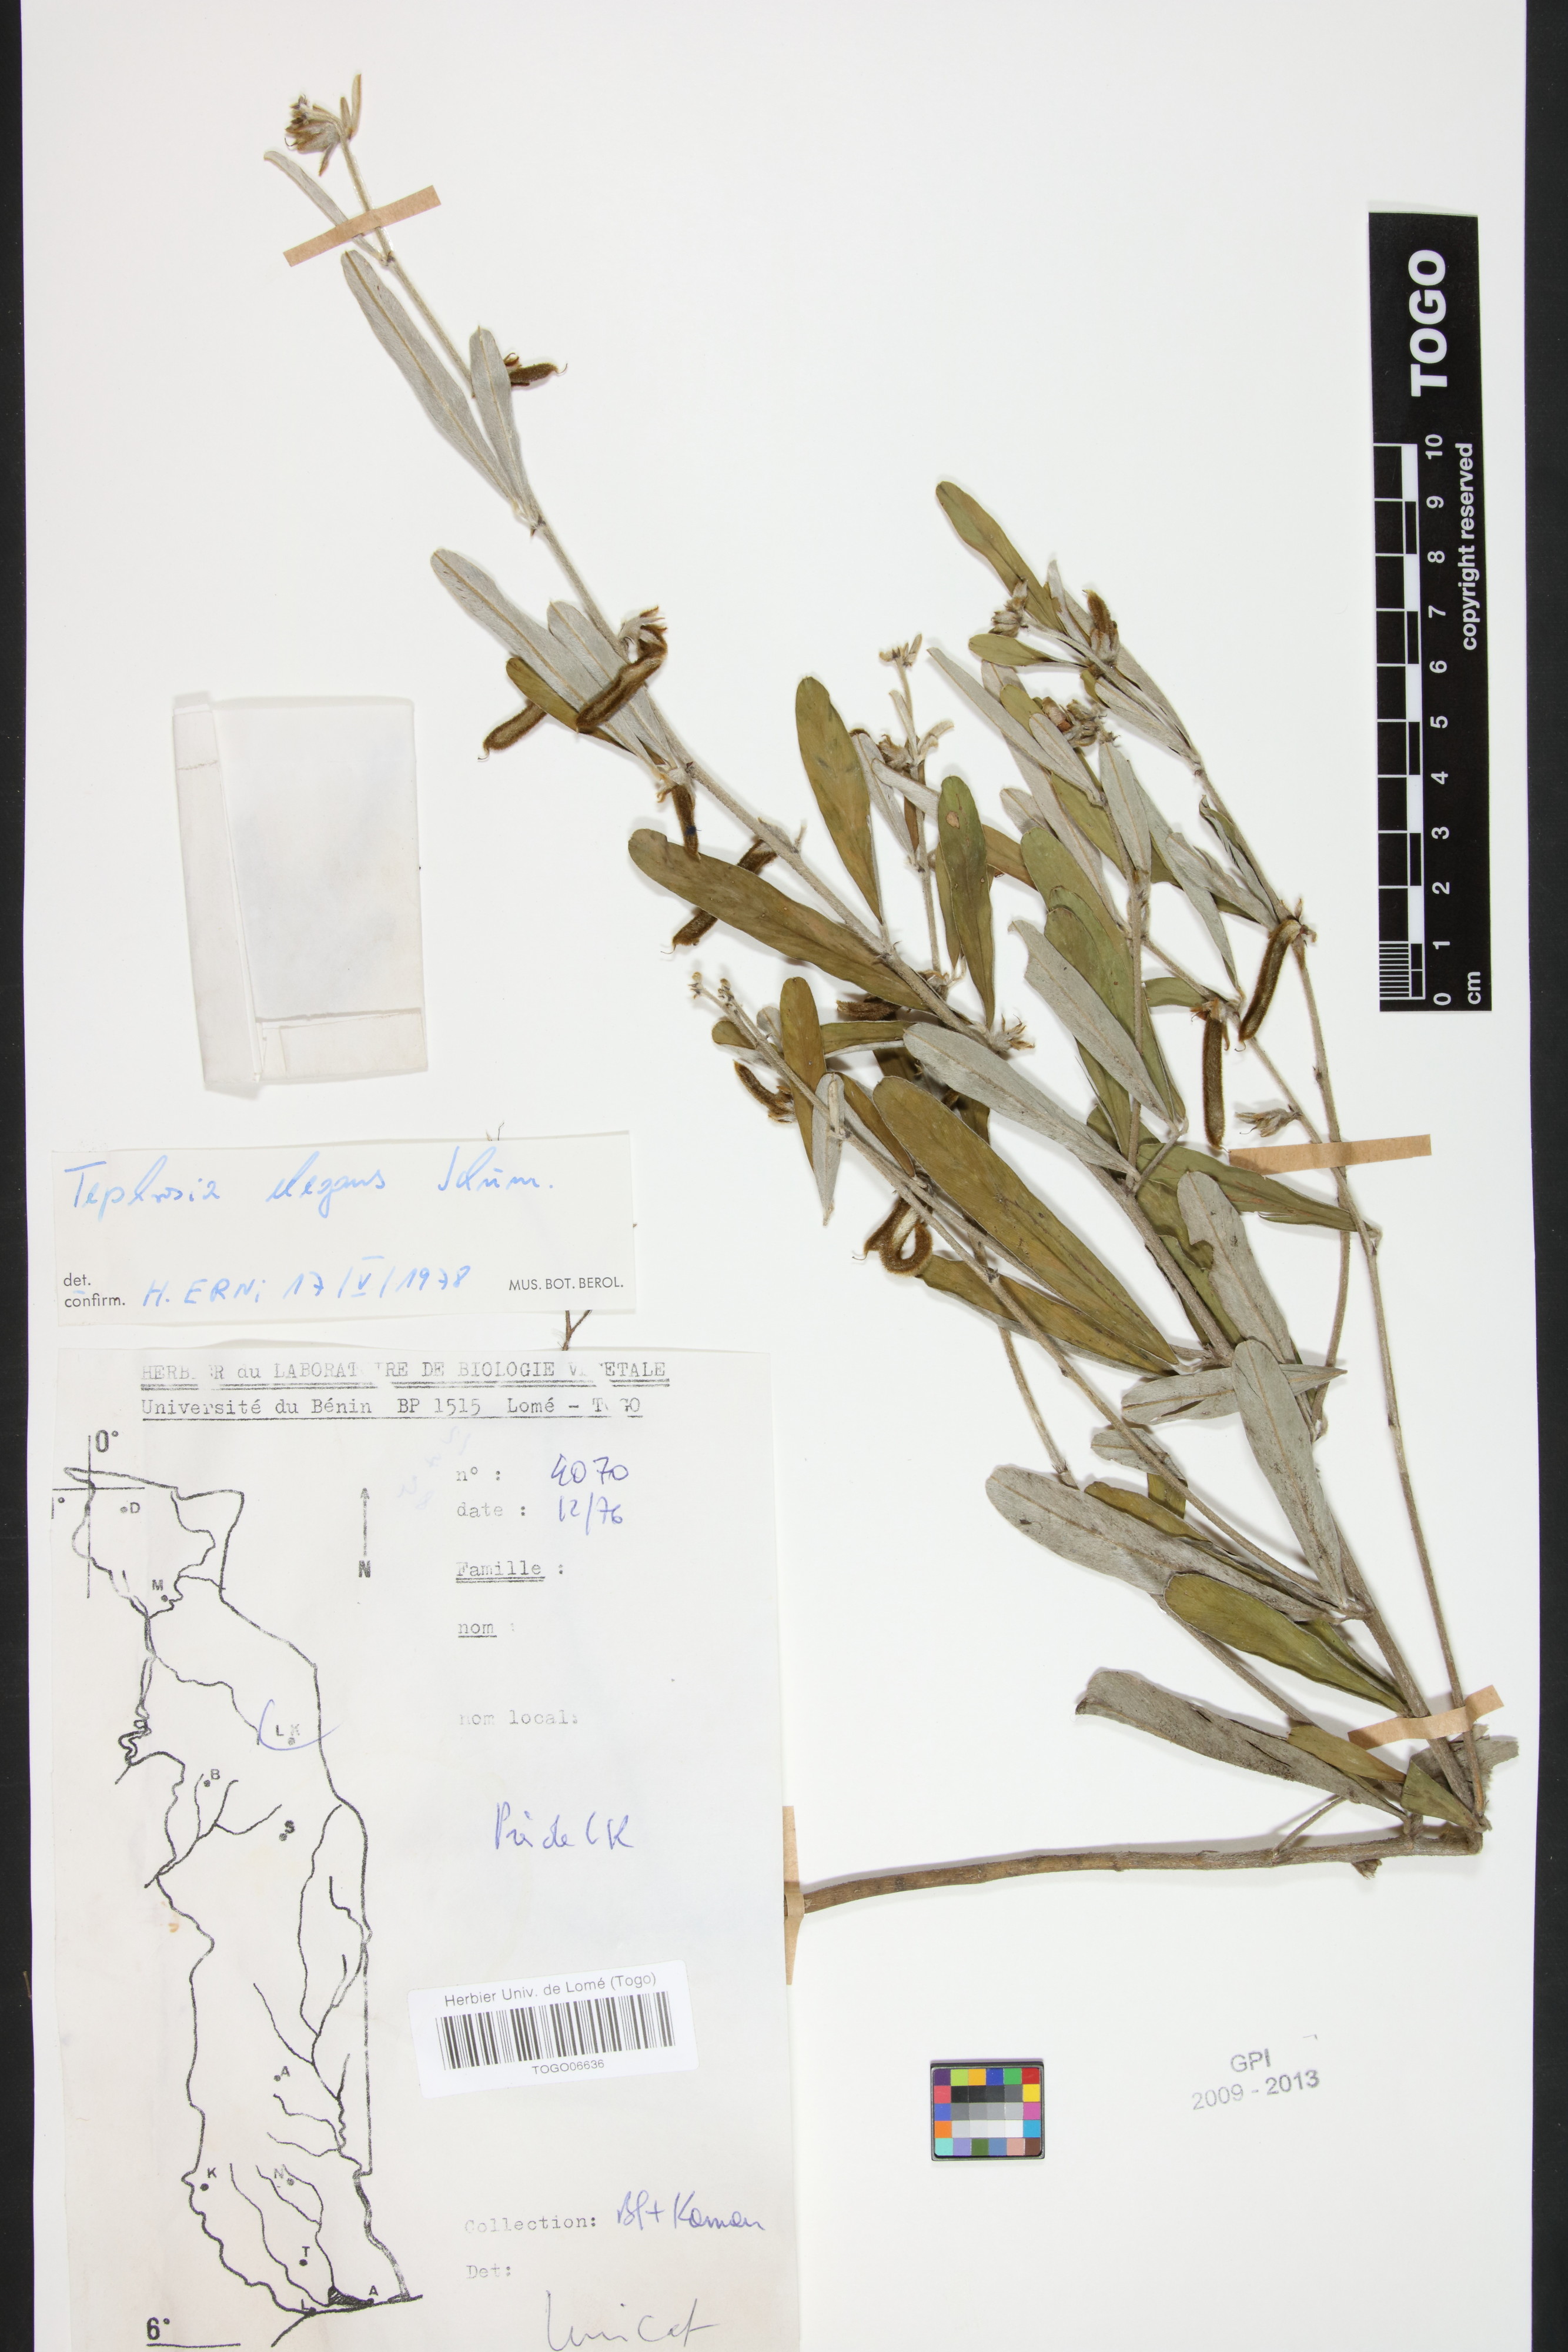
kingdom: Plantae
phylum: Tracheophyta
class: Magnoliopsida
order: Fabales
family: Fabaceae
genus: Tephrosia
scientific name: Tephrosia elegans
